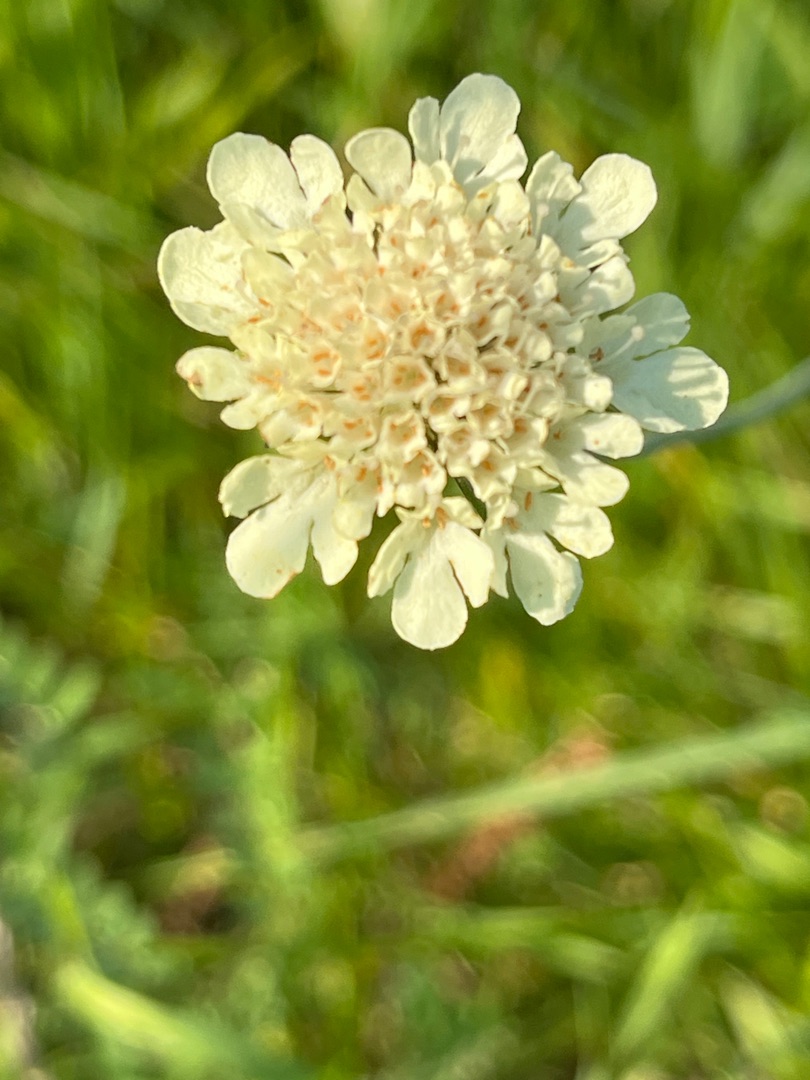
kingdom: Plantae
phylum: Tracheophyta
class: Magnoliopsida
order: Dipsacales
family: Caprifoliaceae
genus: Scabiosa
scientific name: Scabiosa ochroleuca
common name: Gul skabiose
